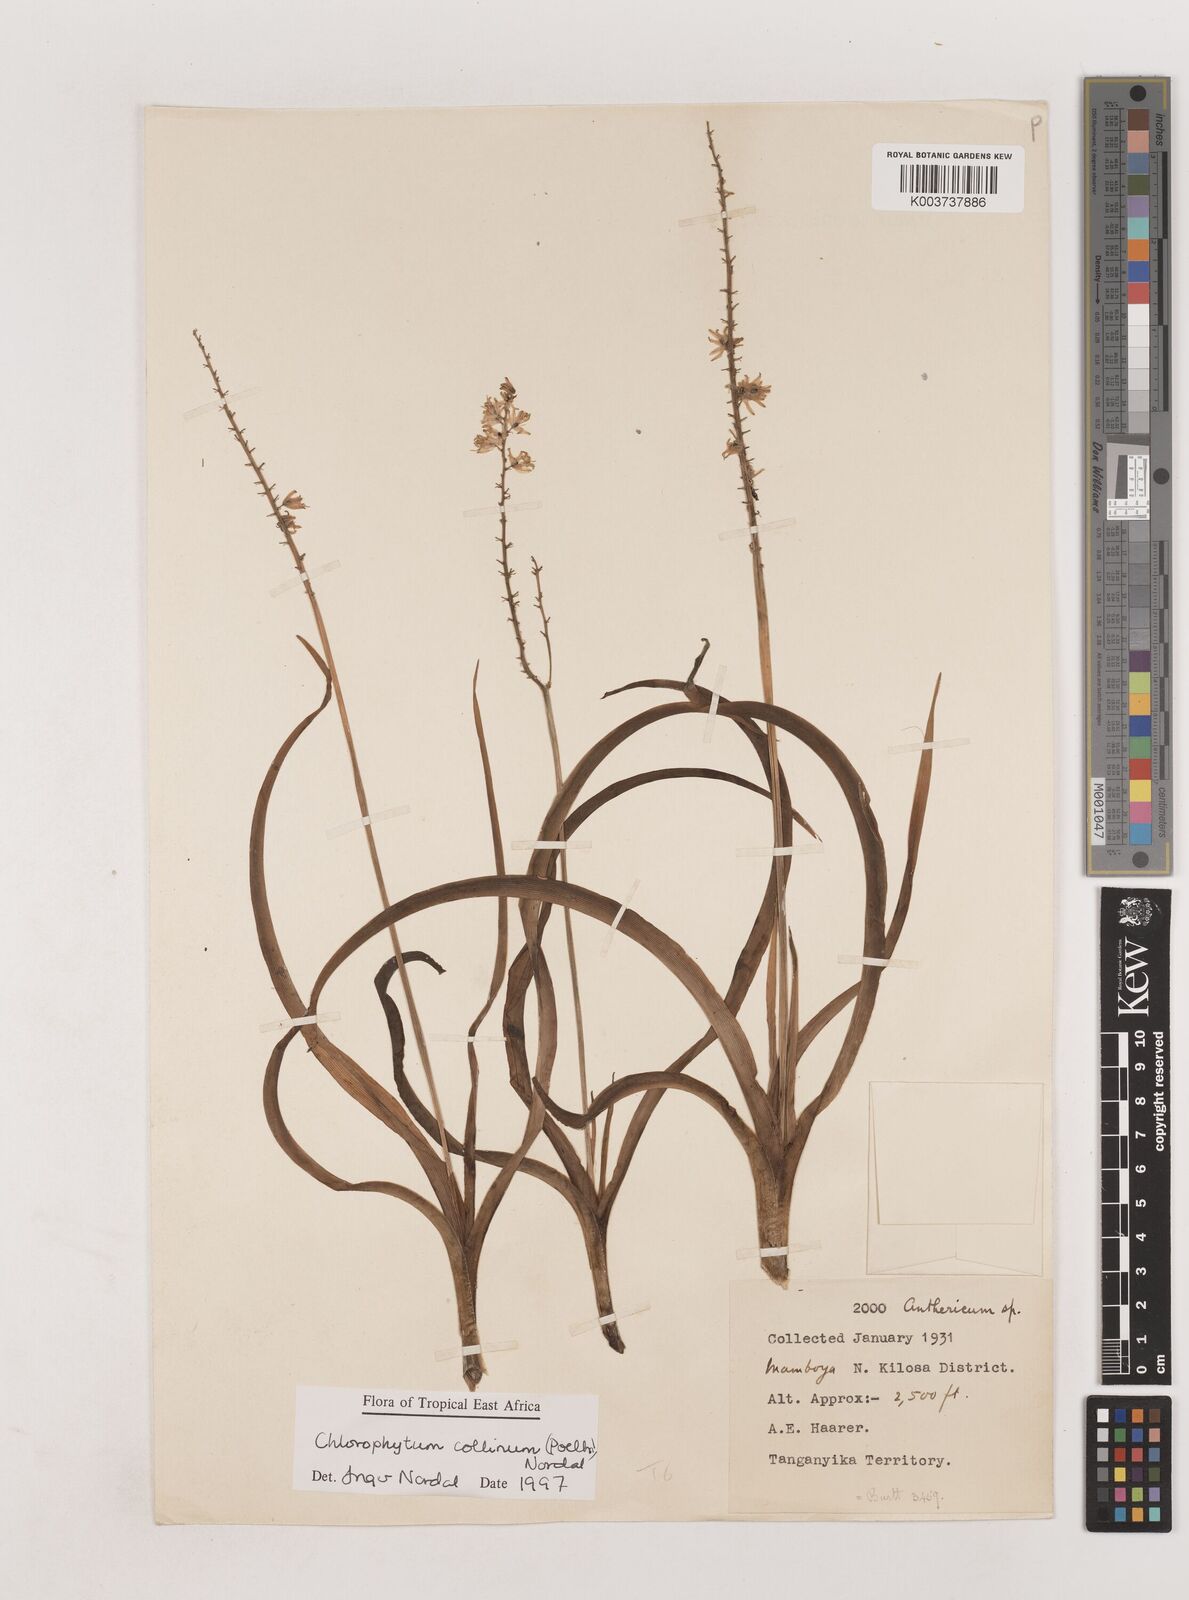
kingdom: Plantae
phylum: Tracheophyta
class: Liliopsida
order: Asparagales
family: Asparagaceae
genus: Chlorophytum
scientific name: Chlorophytum collinum
